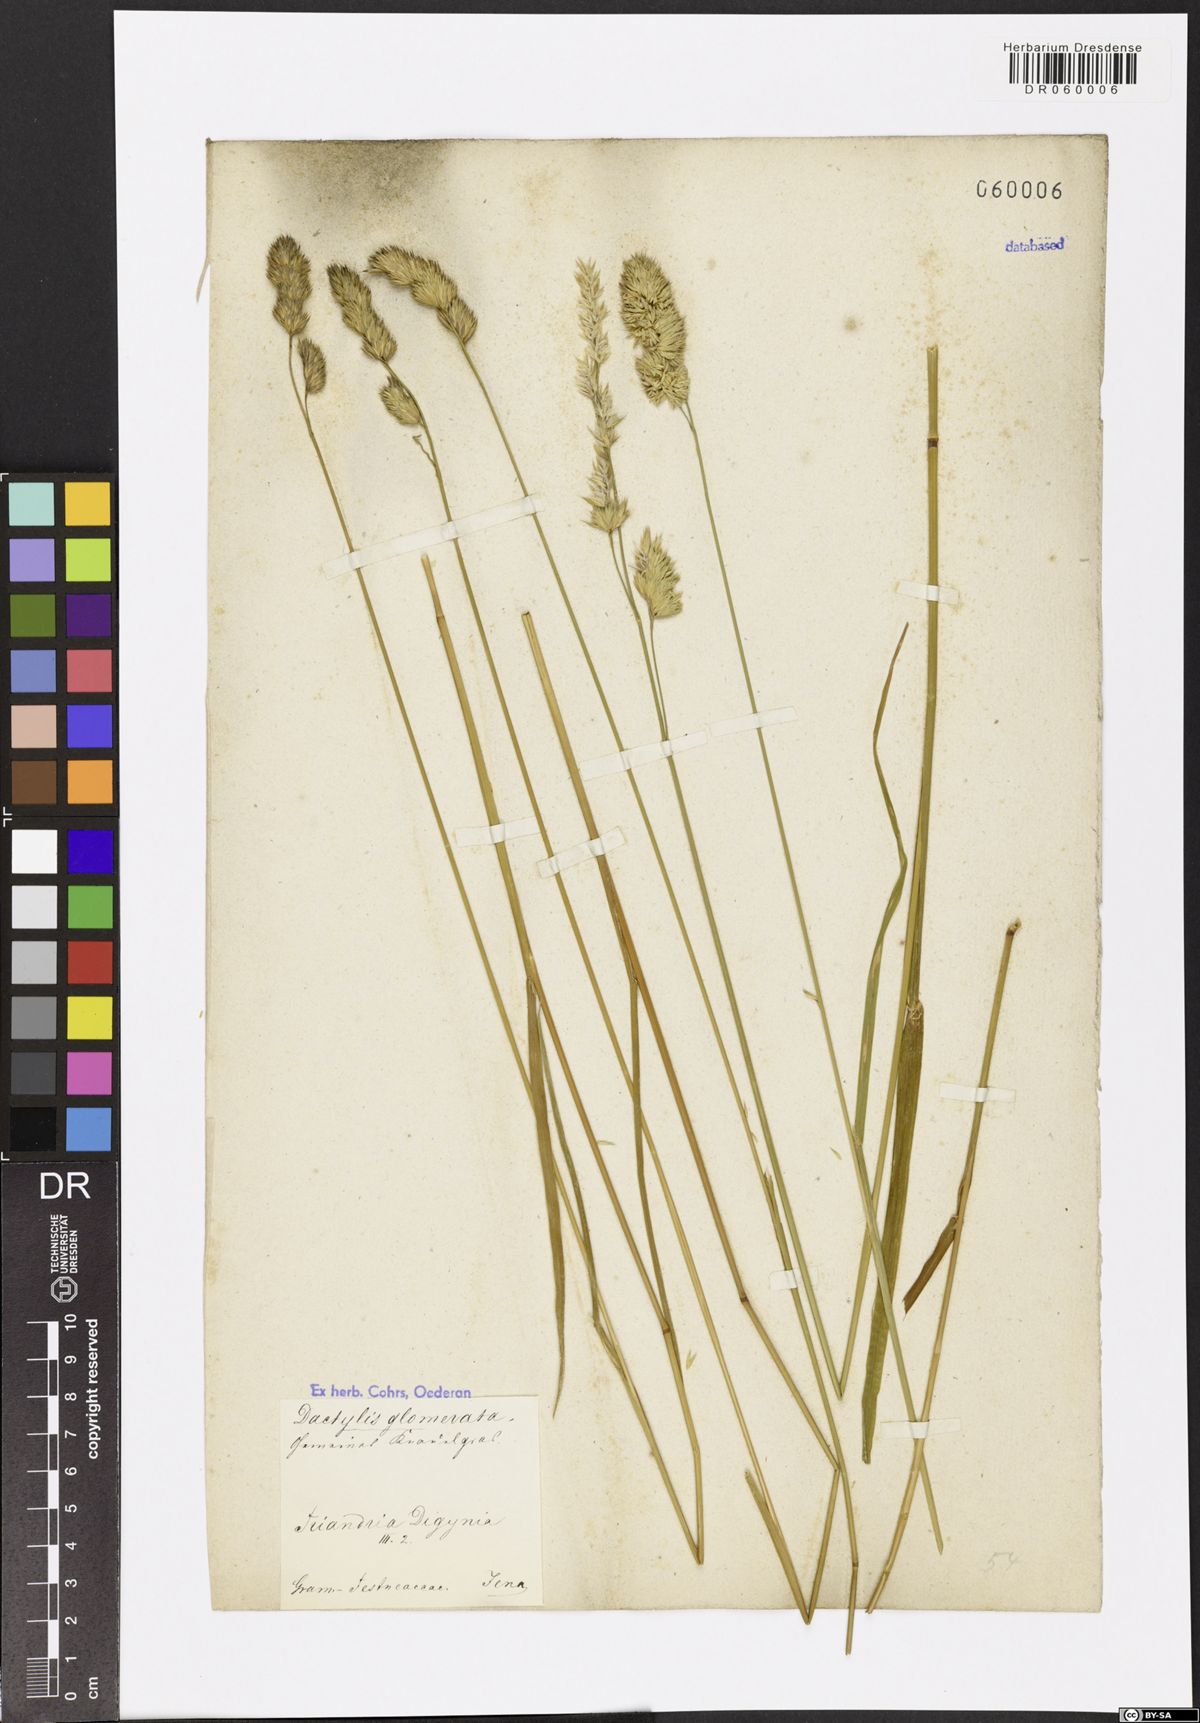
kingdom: Plantae
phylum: Tracheophyta
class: Liliopsida
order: Poales
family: Poaceae
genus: Dactylis
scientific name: Dactylis glomerata
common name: Orchardgrass
